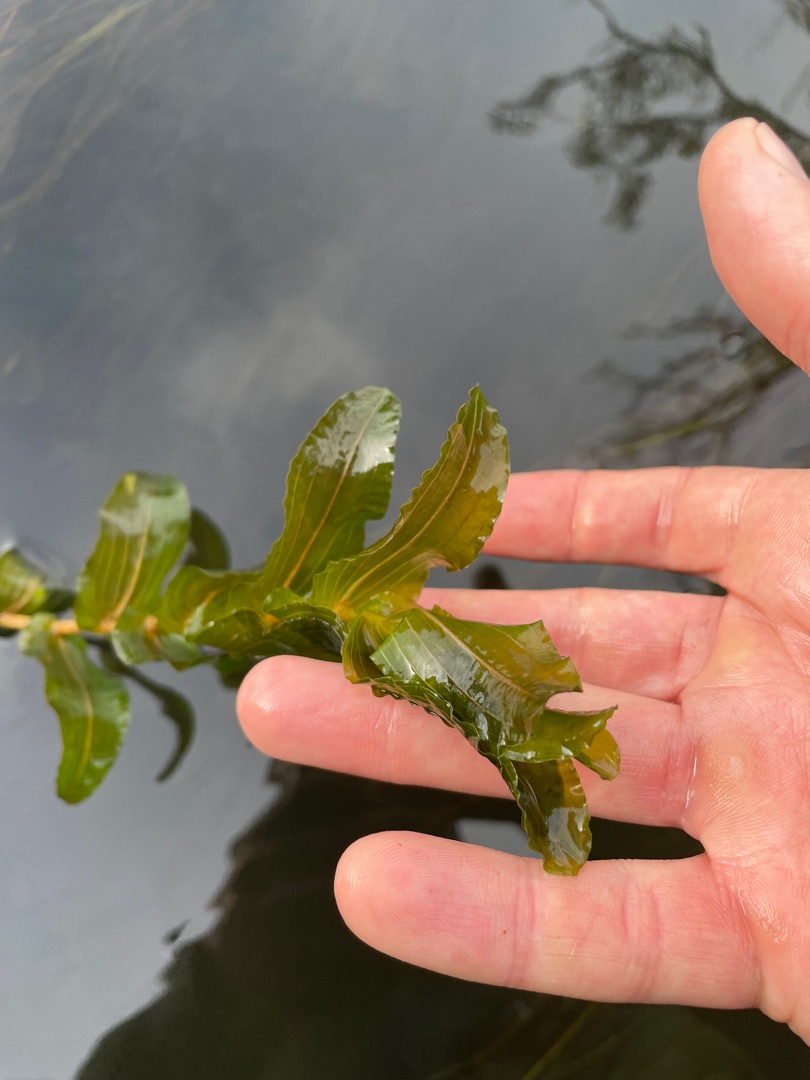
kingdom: Plantae
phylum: Tracheophyta
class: Liliopsida
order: Alismatales
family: Potamogetonaceae
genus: Potamogeton
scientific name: Potamogeton perfoliatus
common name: Hjertebladet vandaks
